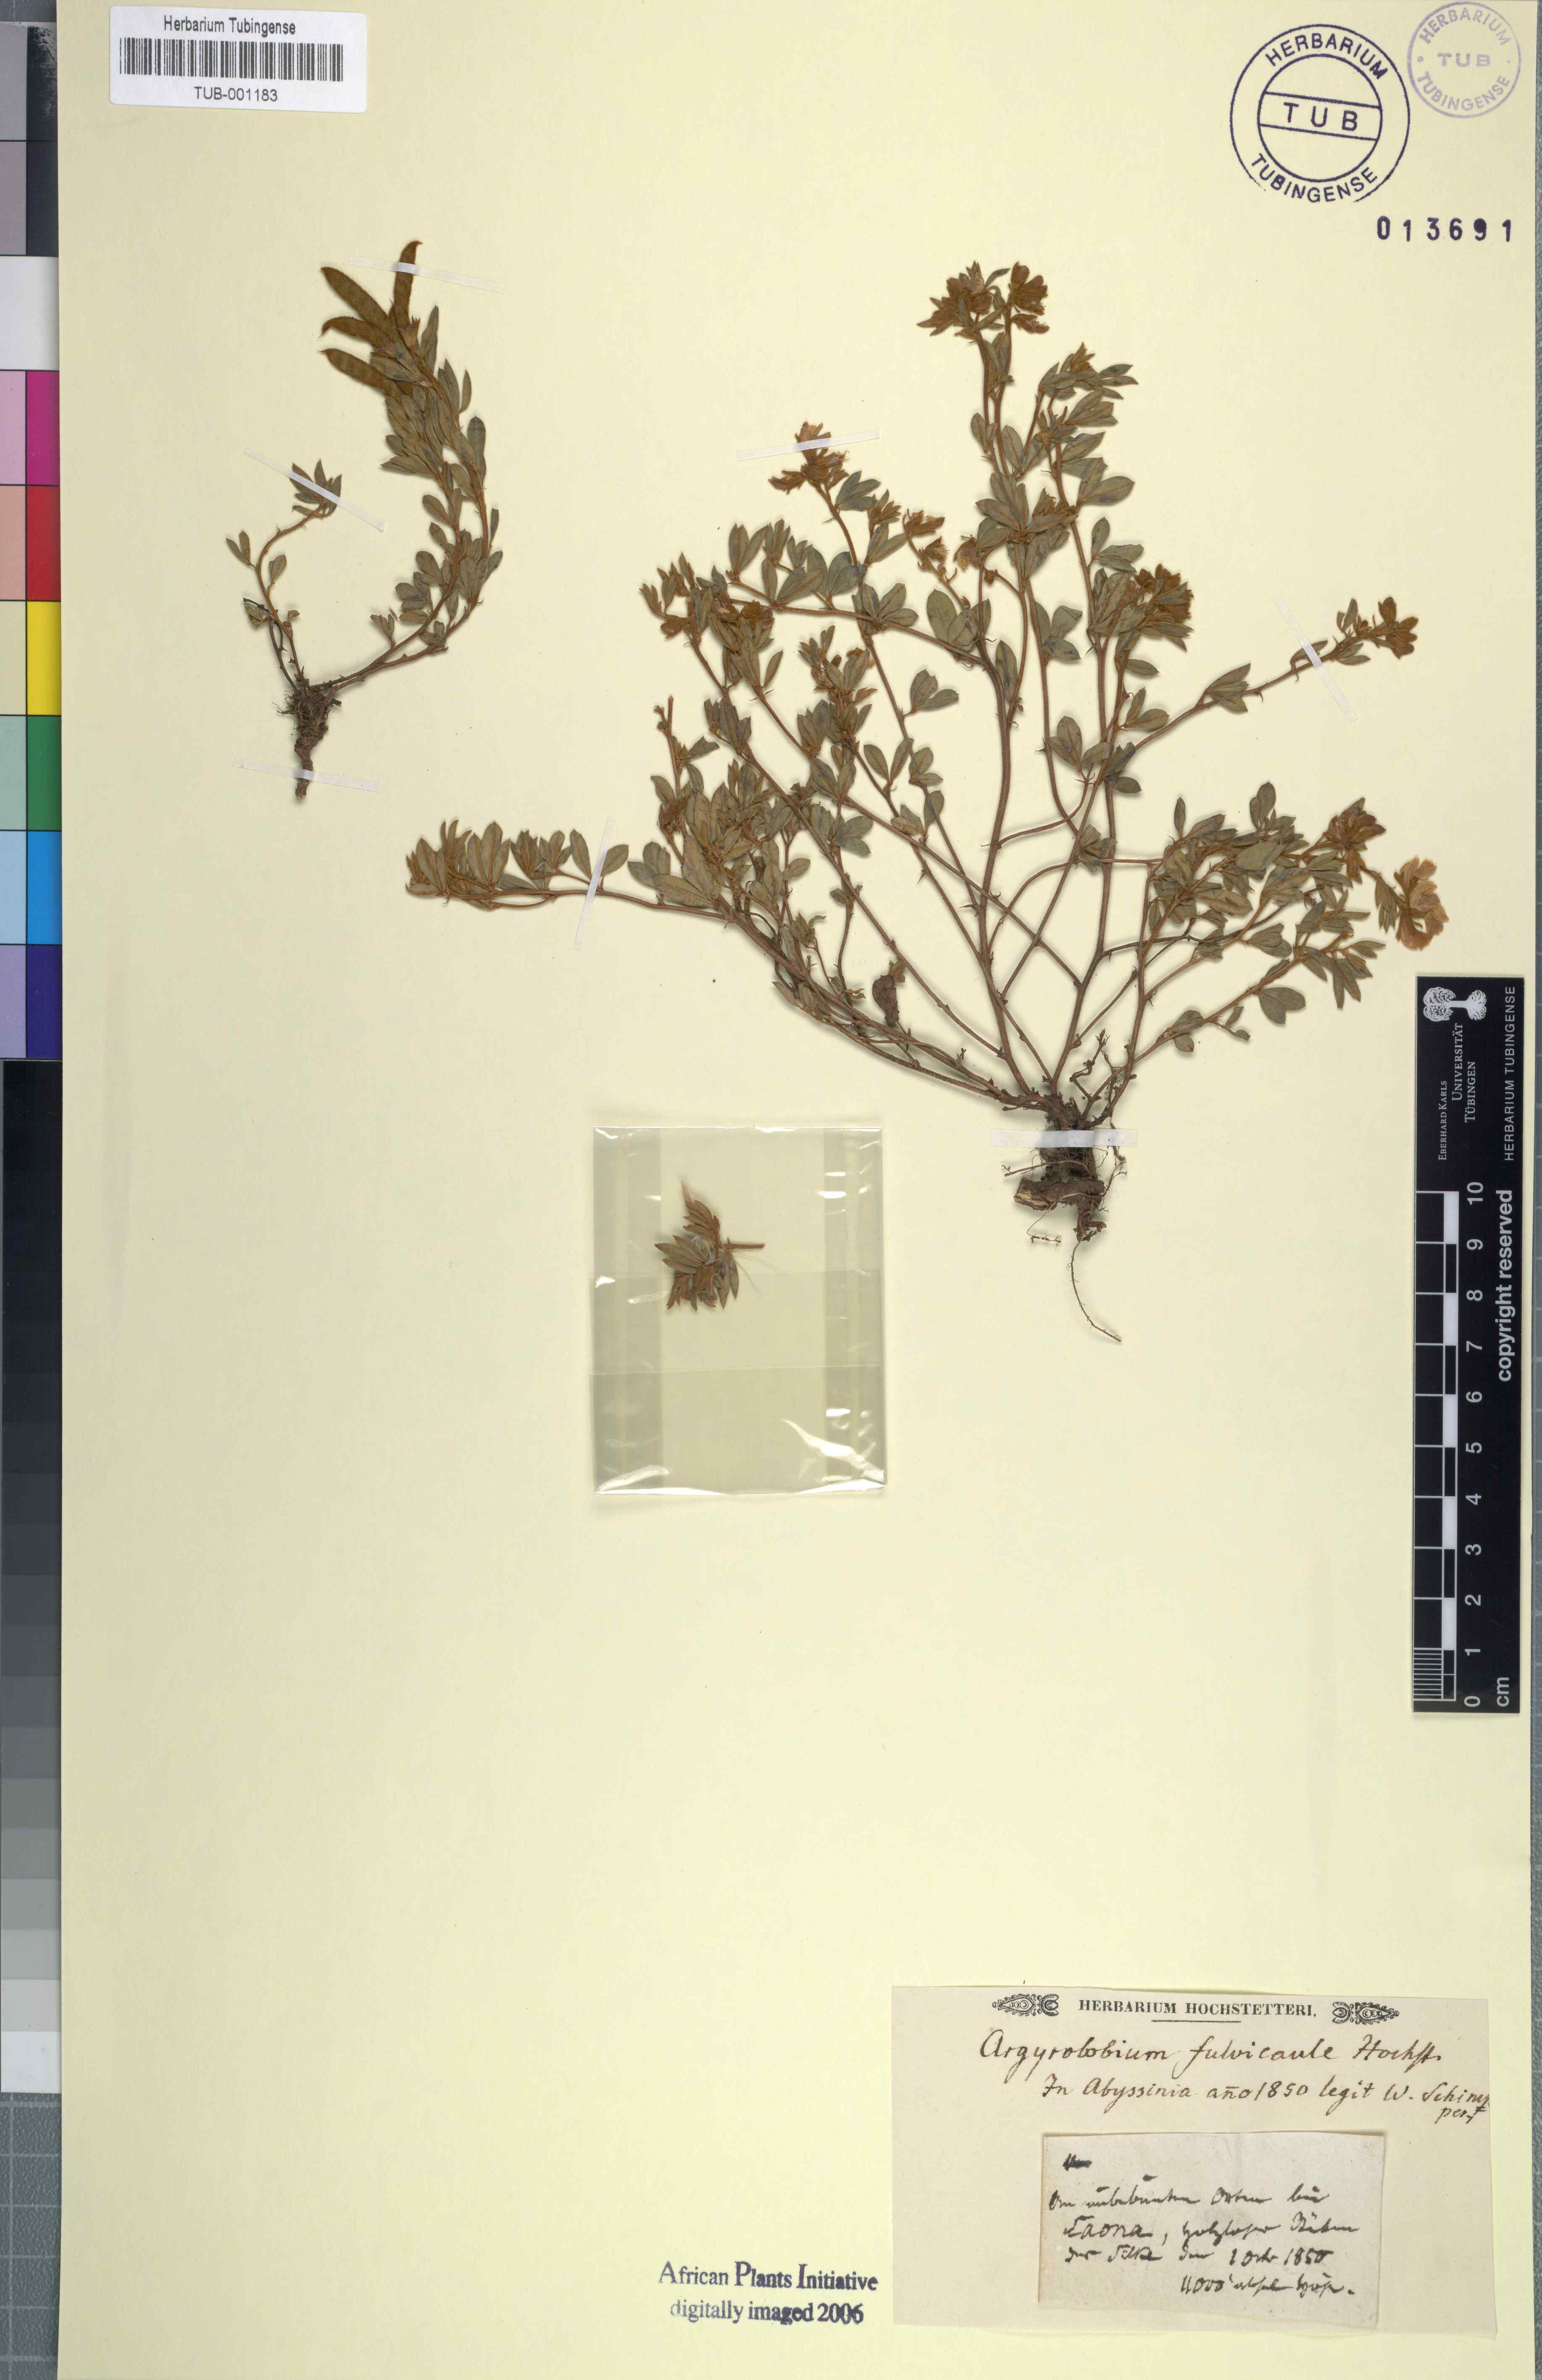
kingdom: Plantae
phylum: Tracheophyta
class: Magnoliopsida
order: Fabales
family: Fabaceae
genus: Argyrolobium
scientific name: Argyrolobium fulvicaule
